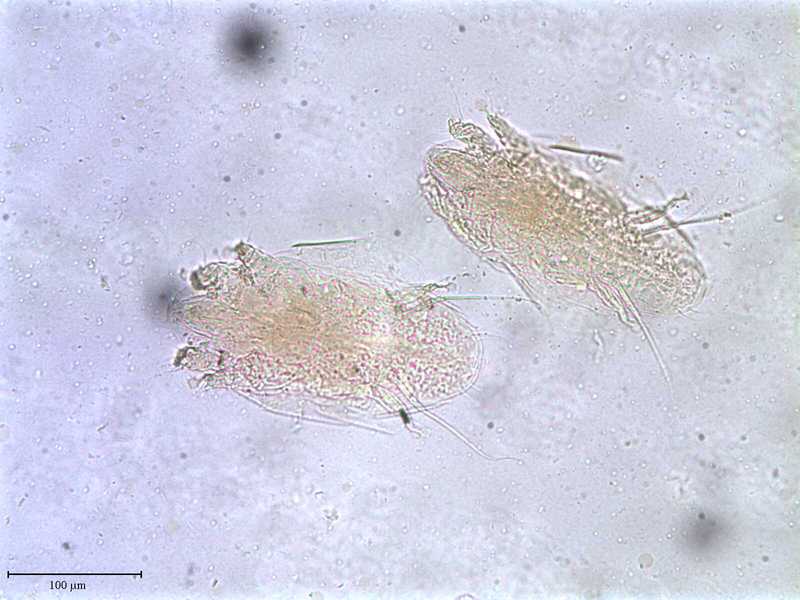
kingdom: Animalia
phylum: Arthropoda
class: Arachnida
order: Trombidiformes
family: Tarsonemidae
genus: Pseudotarsonemoides
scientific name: Pseudotarsonemoides eccoptogasteris
